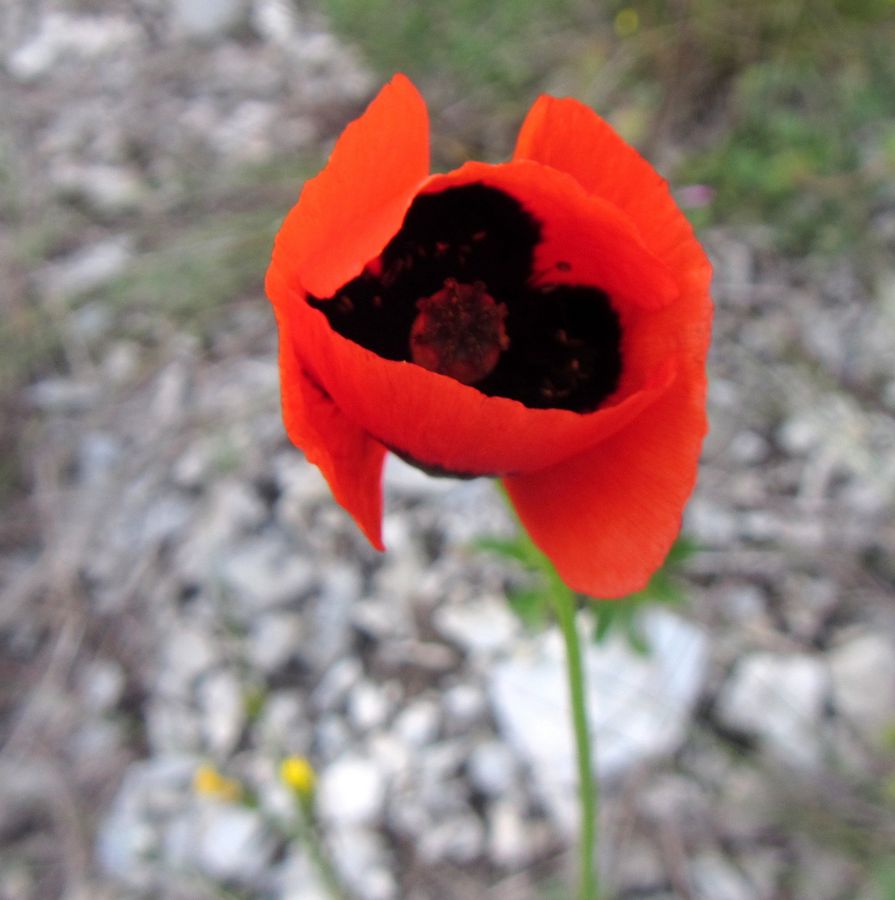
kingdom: Plantae
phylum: Tracheophyta
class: Magnoliopsida
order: Ranunculales
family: Papaveraceae
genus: Papaver
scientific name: Papaver dubium
